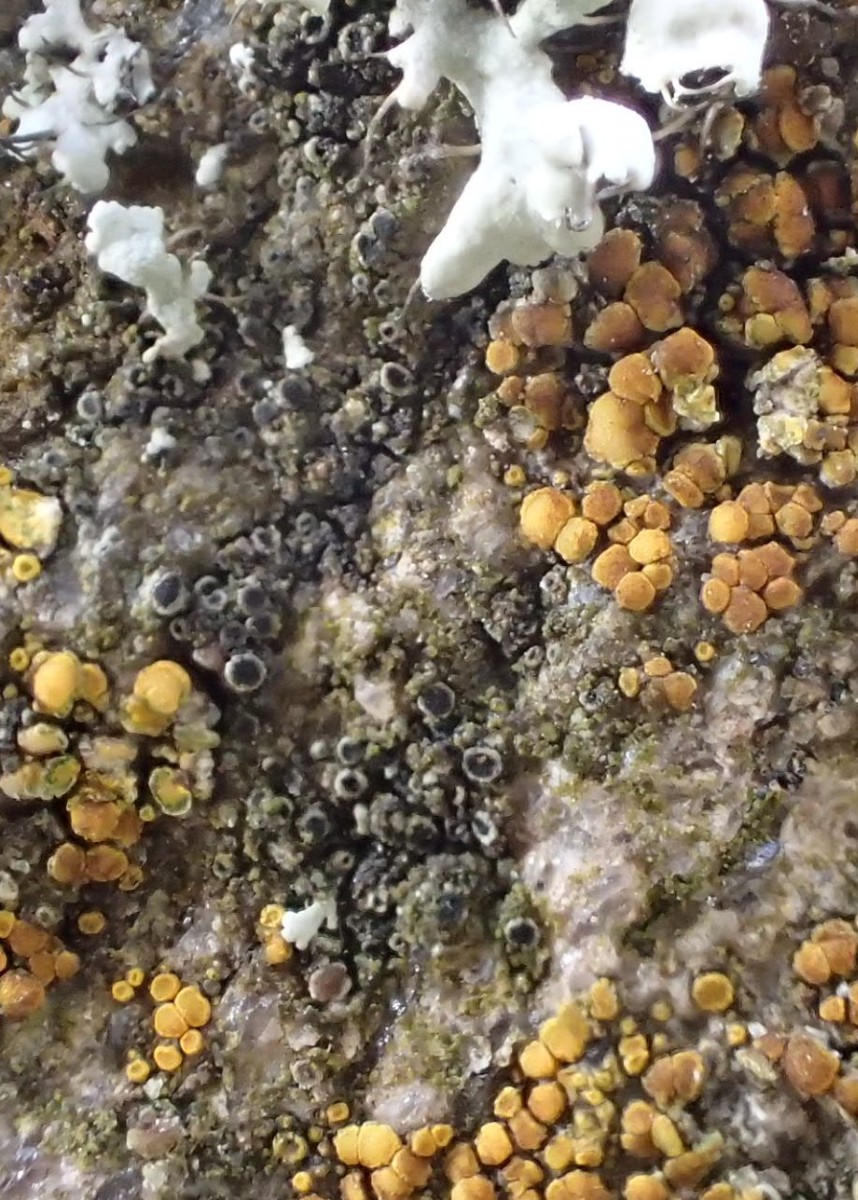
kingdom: Fungi
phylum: Ascomycota
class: Lecanoromycetes
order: Caliciales
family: Physciaceae
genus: Rinodina
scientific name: Rinodina oleae
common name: kyst-knaplav
